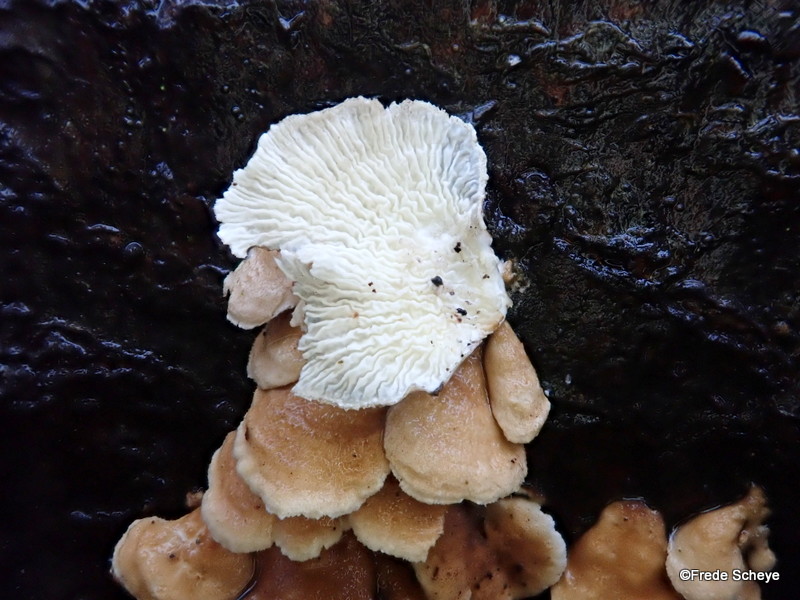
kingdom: Fungi
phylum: Basidiomycota
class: Agaricomycetes
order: Amylocorticiales
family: Amylocorticiaceae
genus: Plicaturopsis
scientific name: Plicaturopsis crispa
